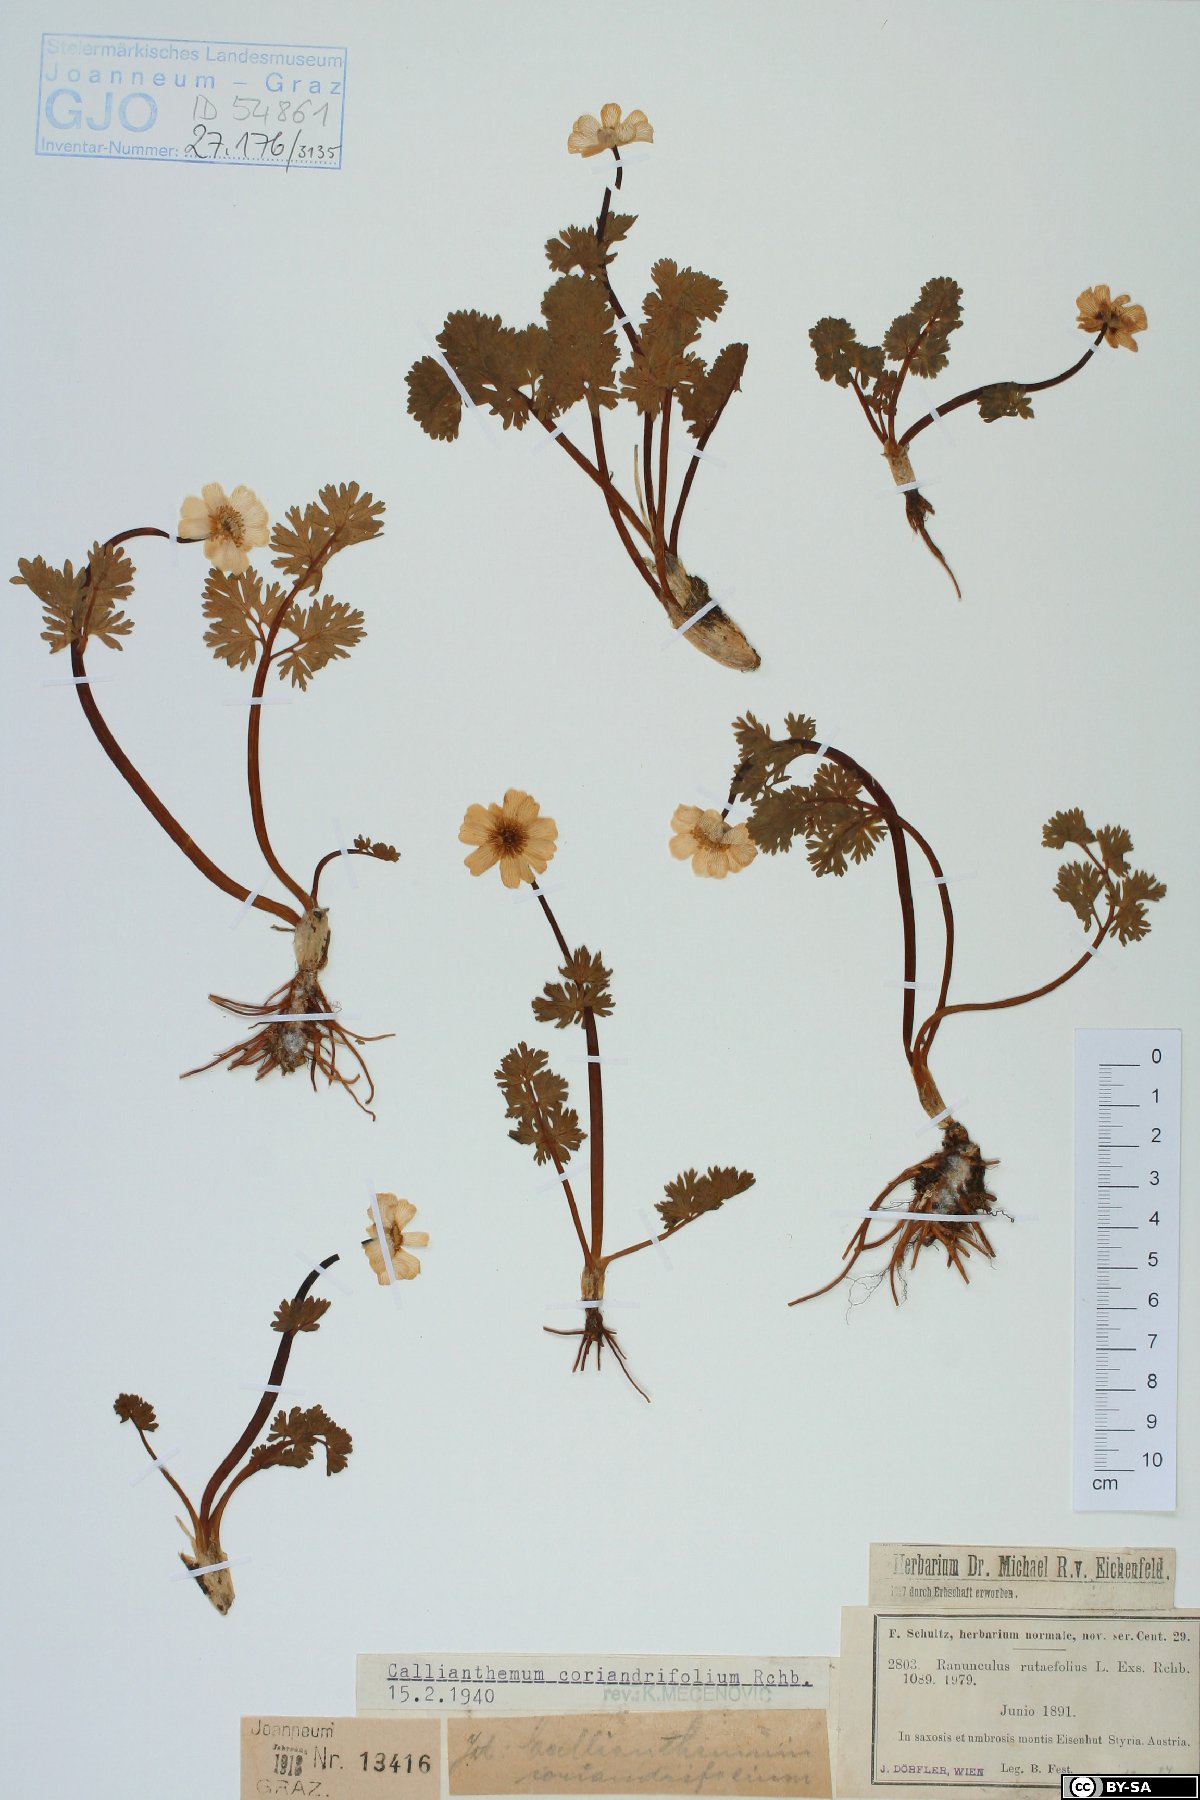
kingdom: Plantae
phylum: Tracheophyta
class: Magnoliopsida
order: Ranunculales
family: Ranunculaceae
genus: Callianthemum
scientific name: Callianthemum coriandrifolium
